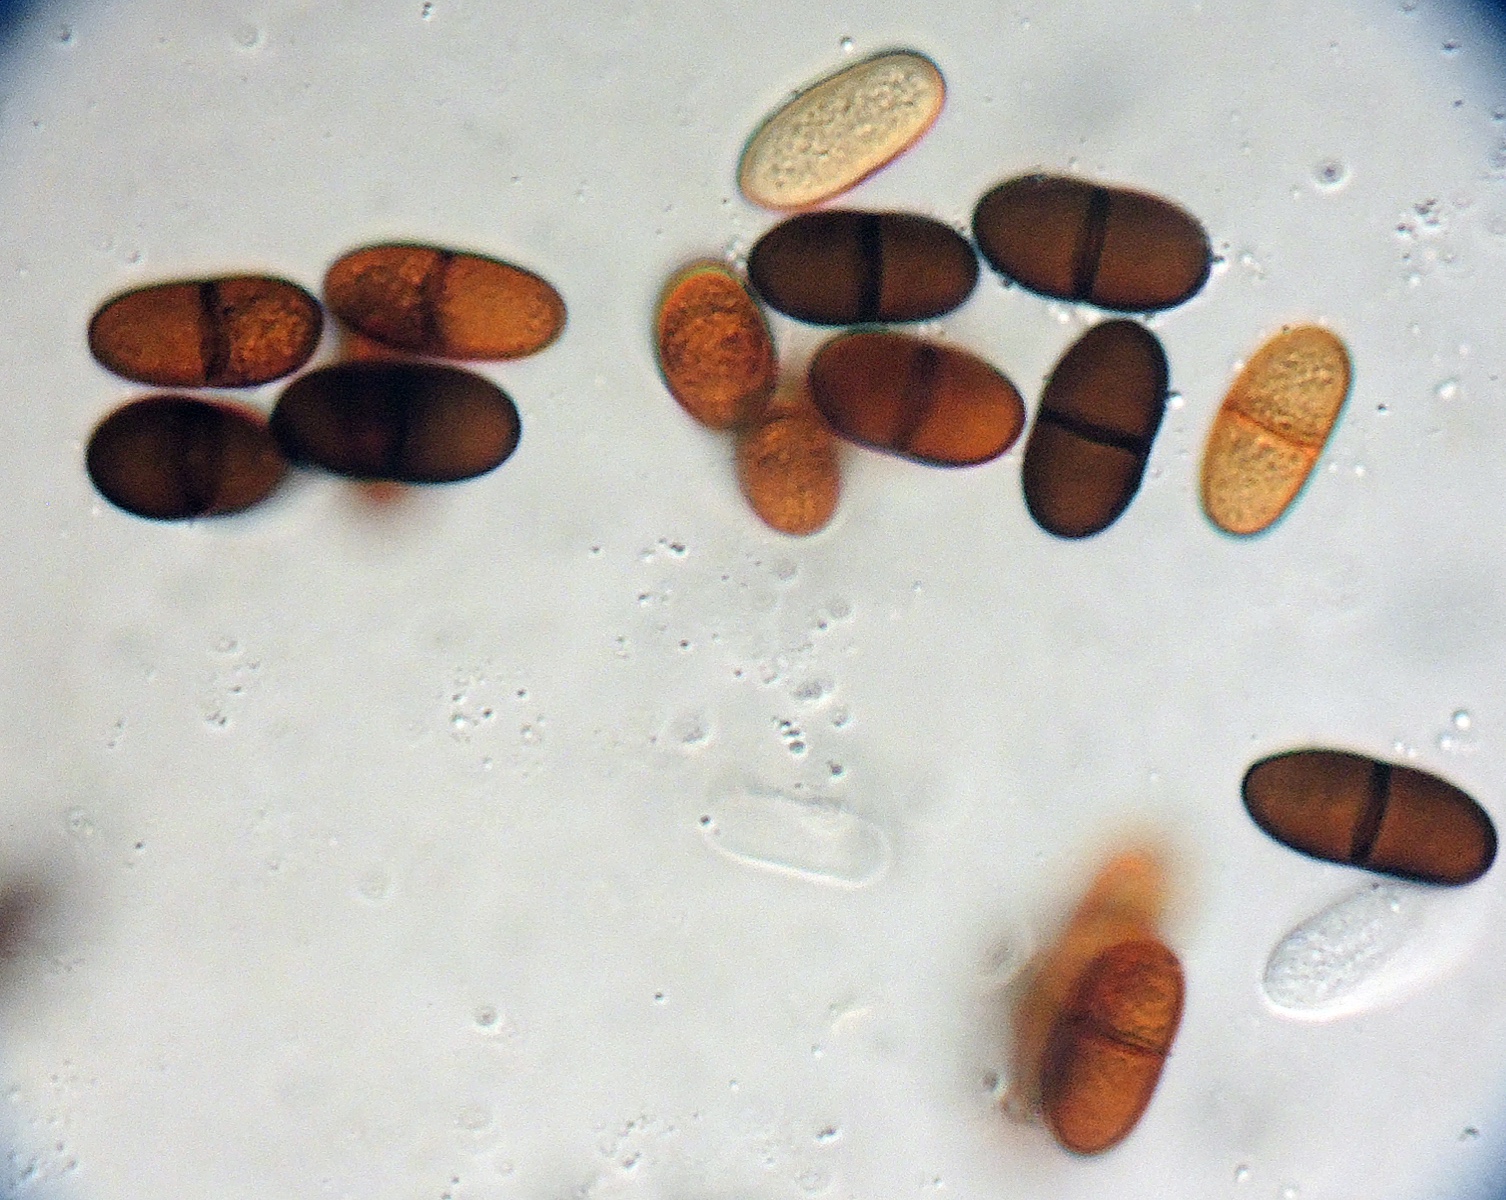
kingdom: Fungi
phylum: Ascomycota
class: Dothideomycetes
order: Botryosphaeriales
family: Botryosphaeriaceae
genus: Diplodia
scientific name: Diplodia
